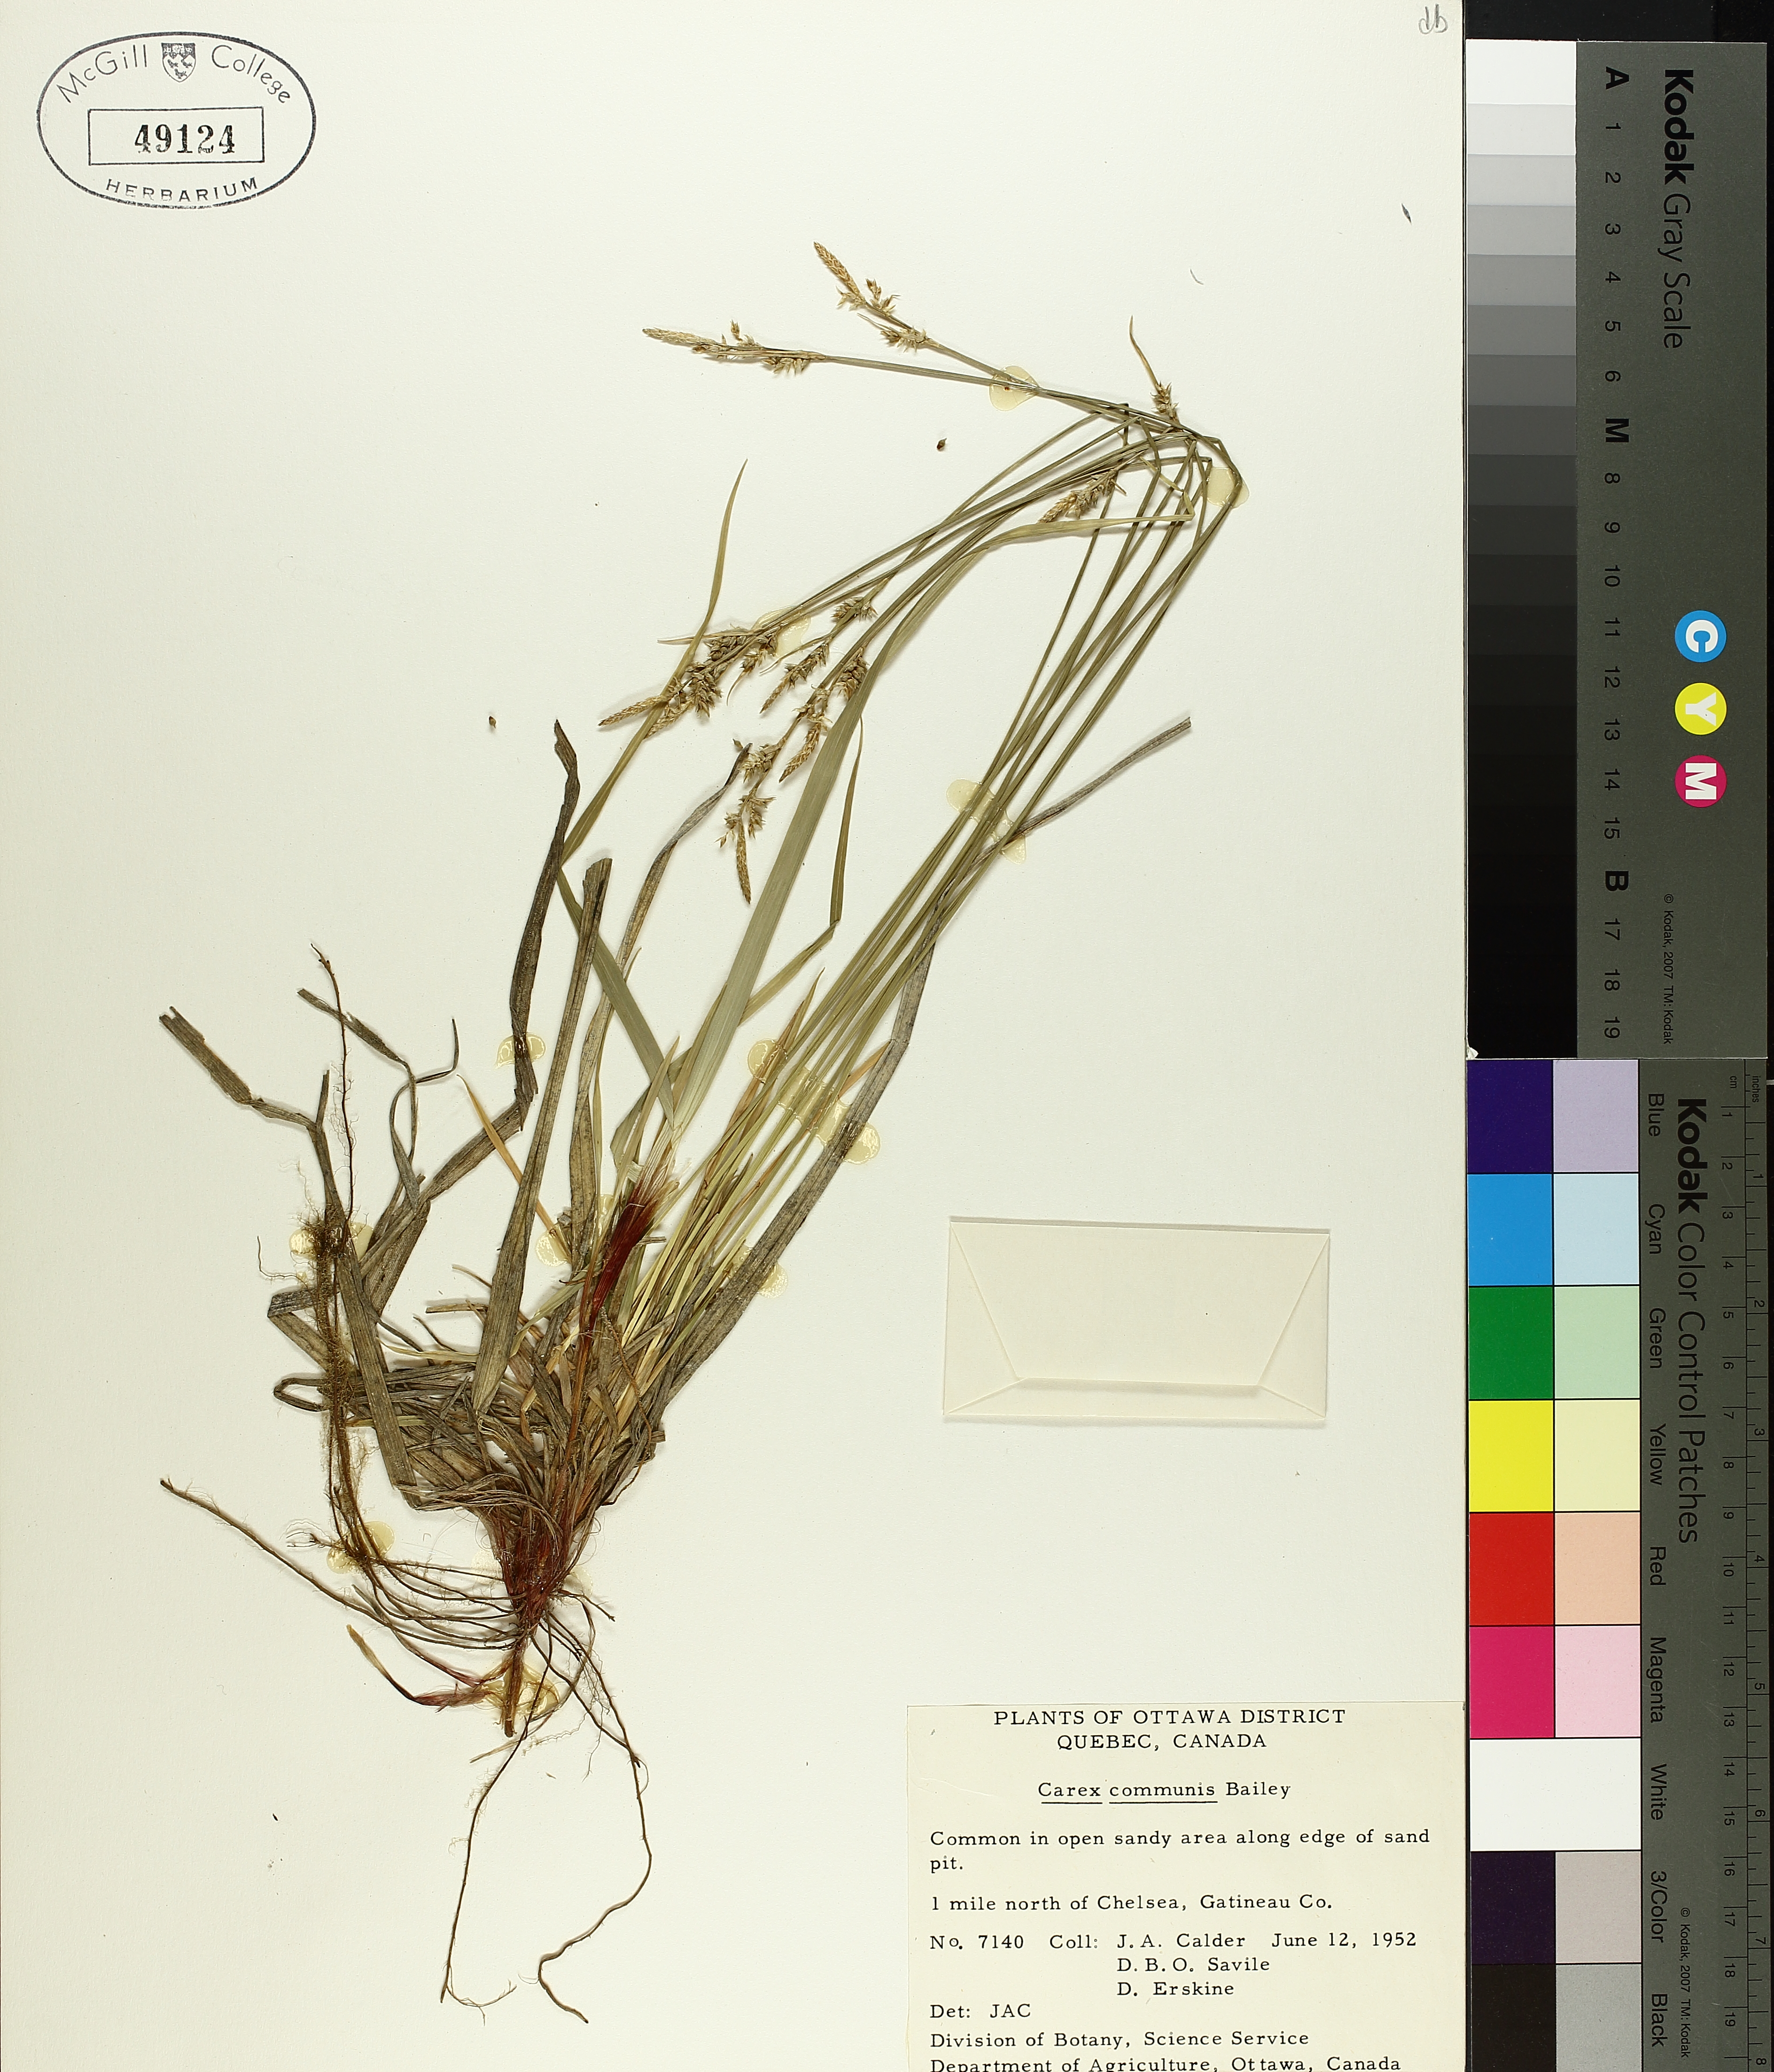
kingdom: Plantae
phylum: Tracheophyta
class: Liliopsida
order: Poales
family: Cyperaceae
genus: Carex
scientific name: Carex communis
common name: Colonial oak sedge
